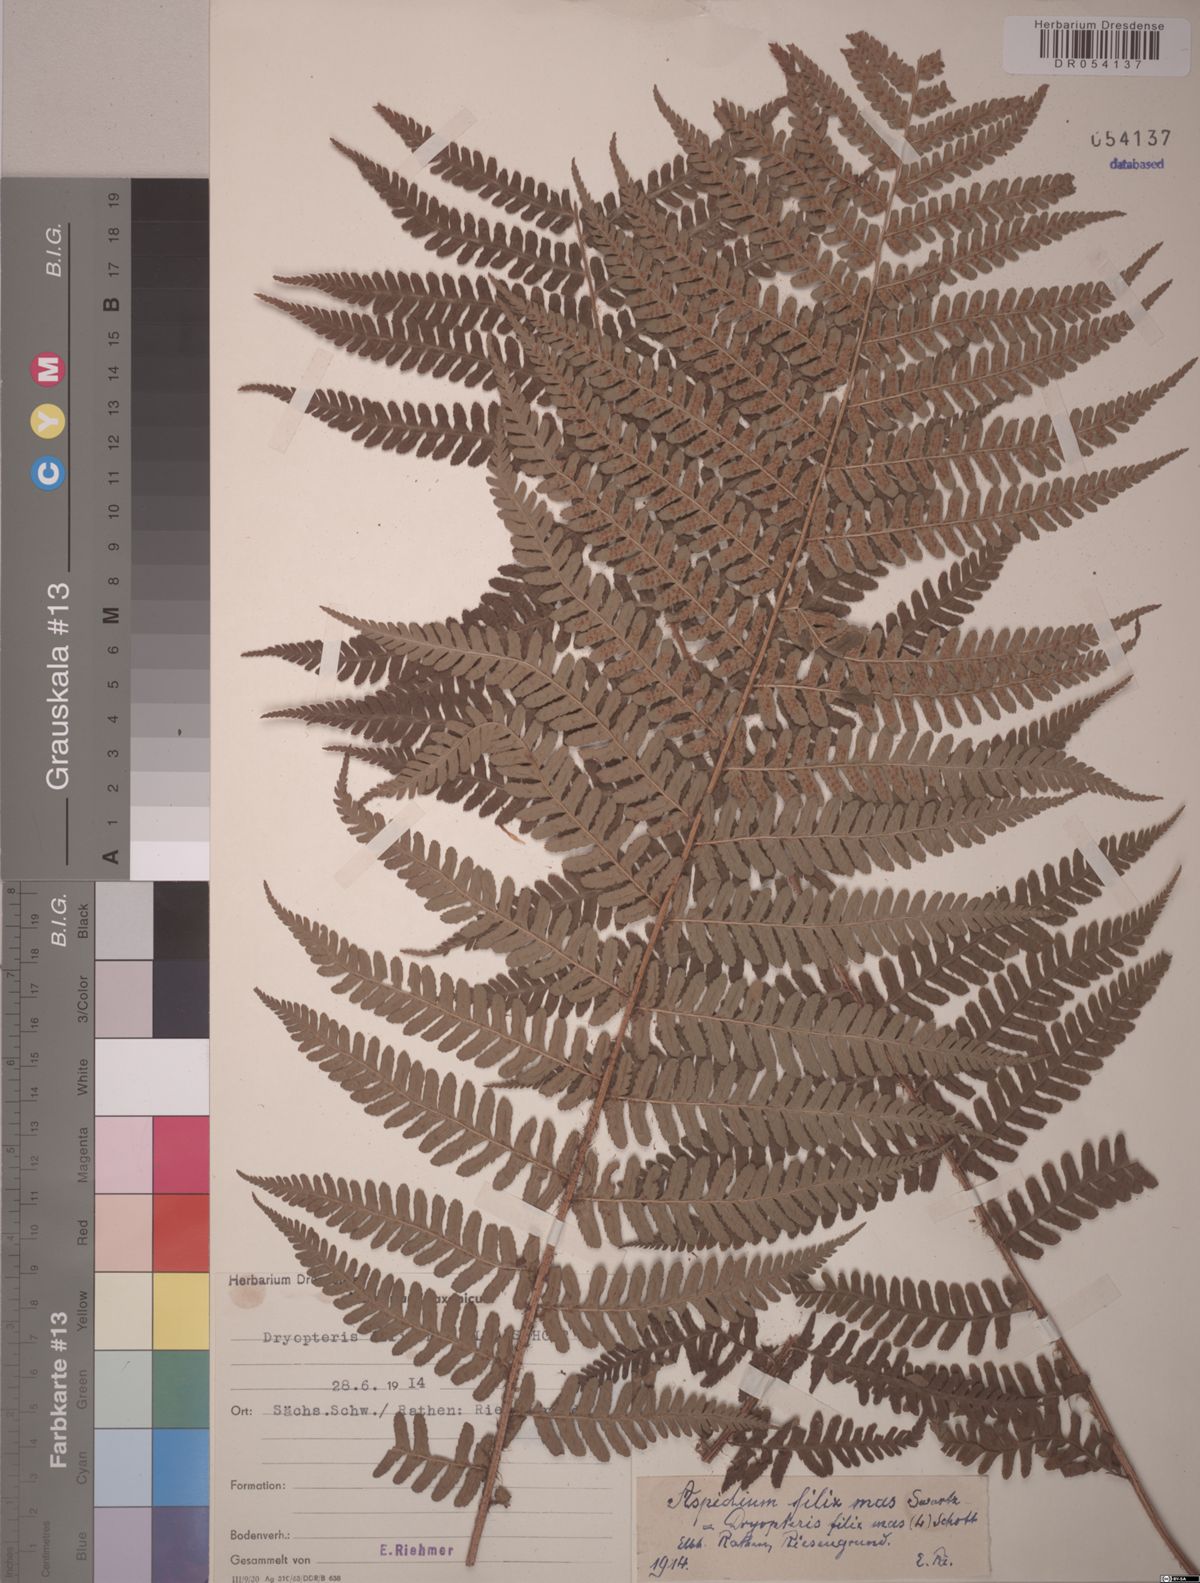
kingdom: Plantae
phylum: Tracheophyta
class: Polypodiopsida
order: Polypodiales
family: Dryopteridaceae
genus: Dryopteris
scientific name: Dryopteris filix-mas
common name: Male fern
